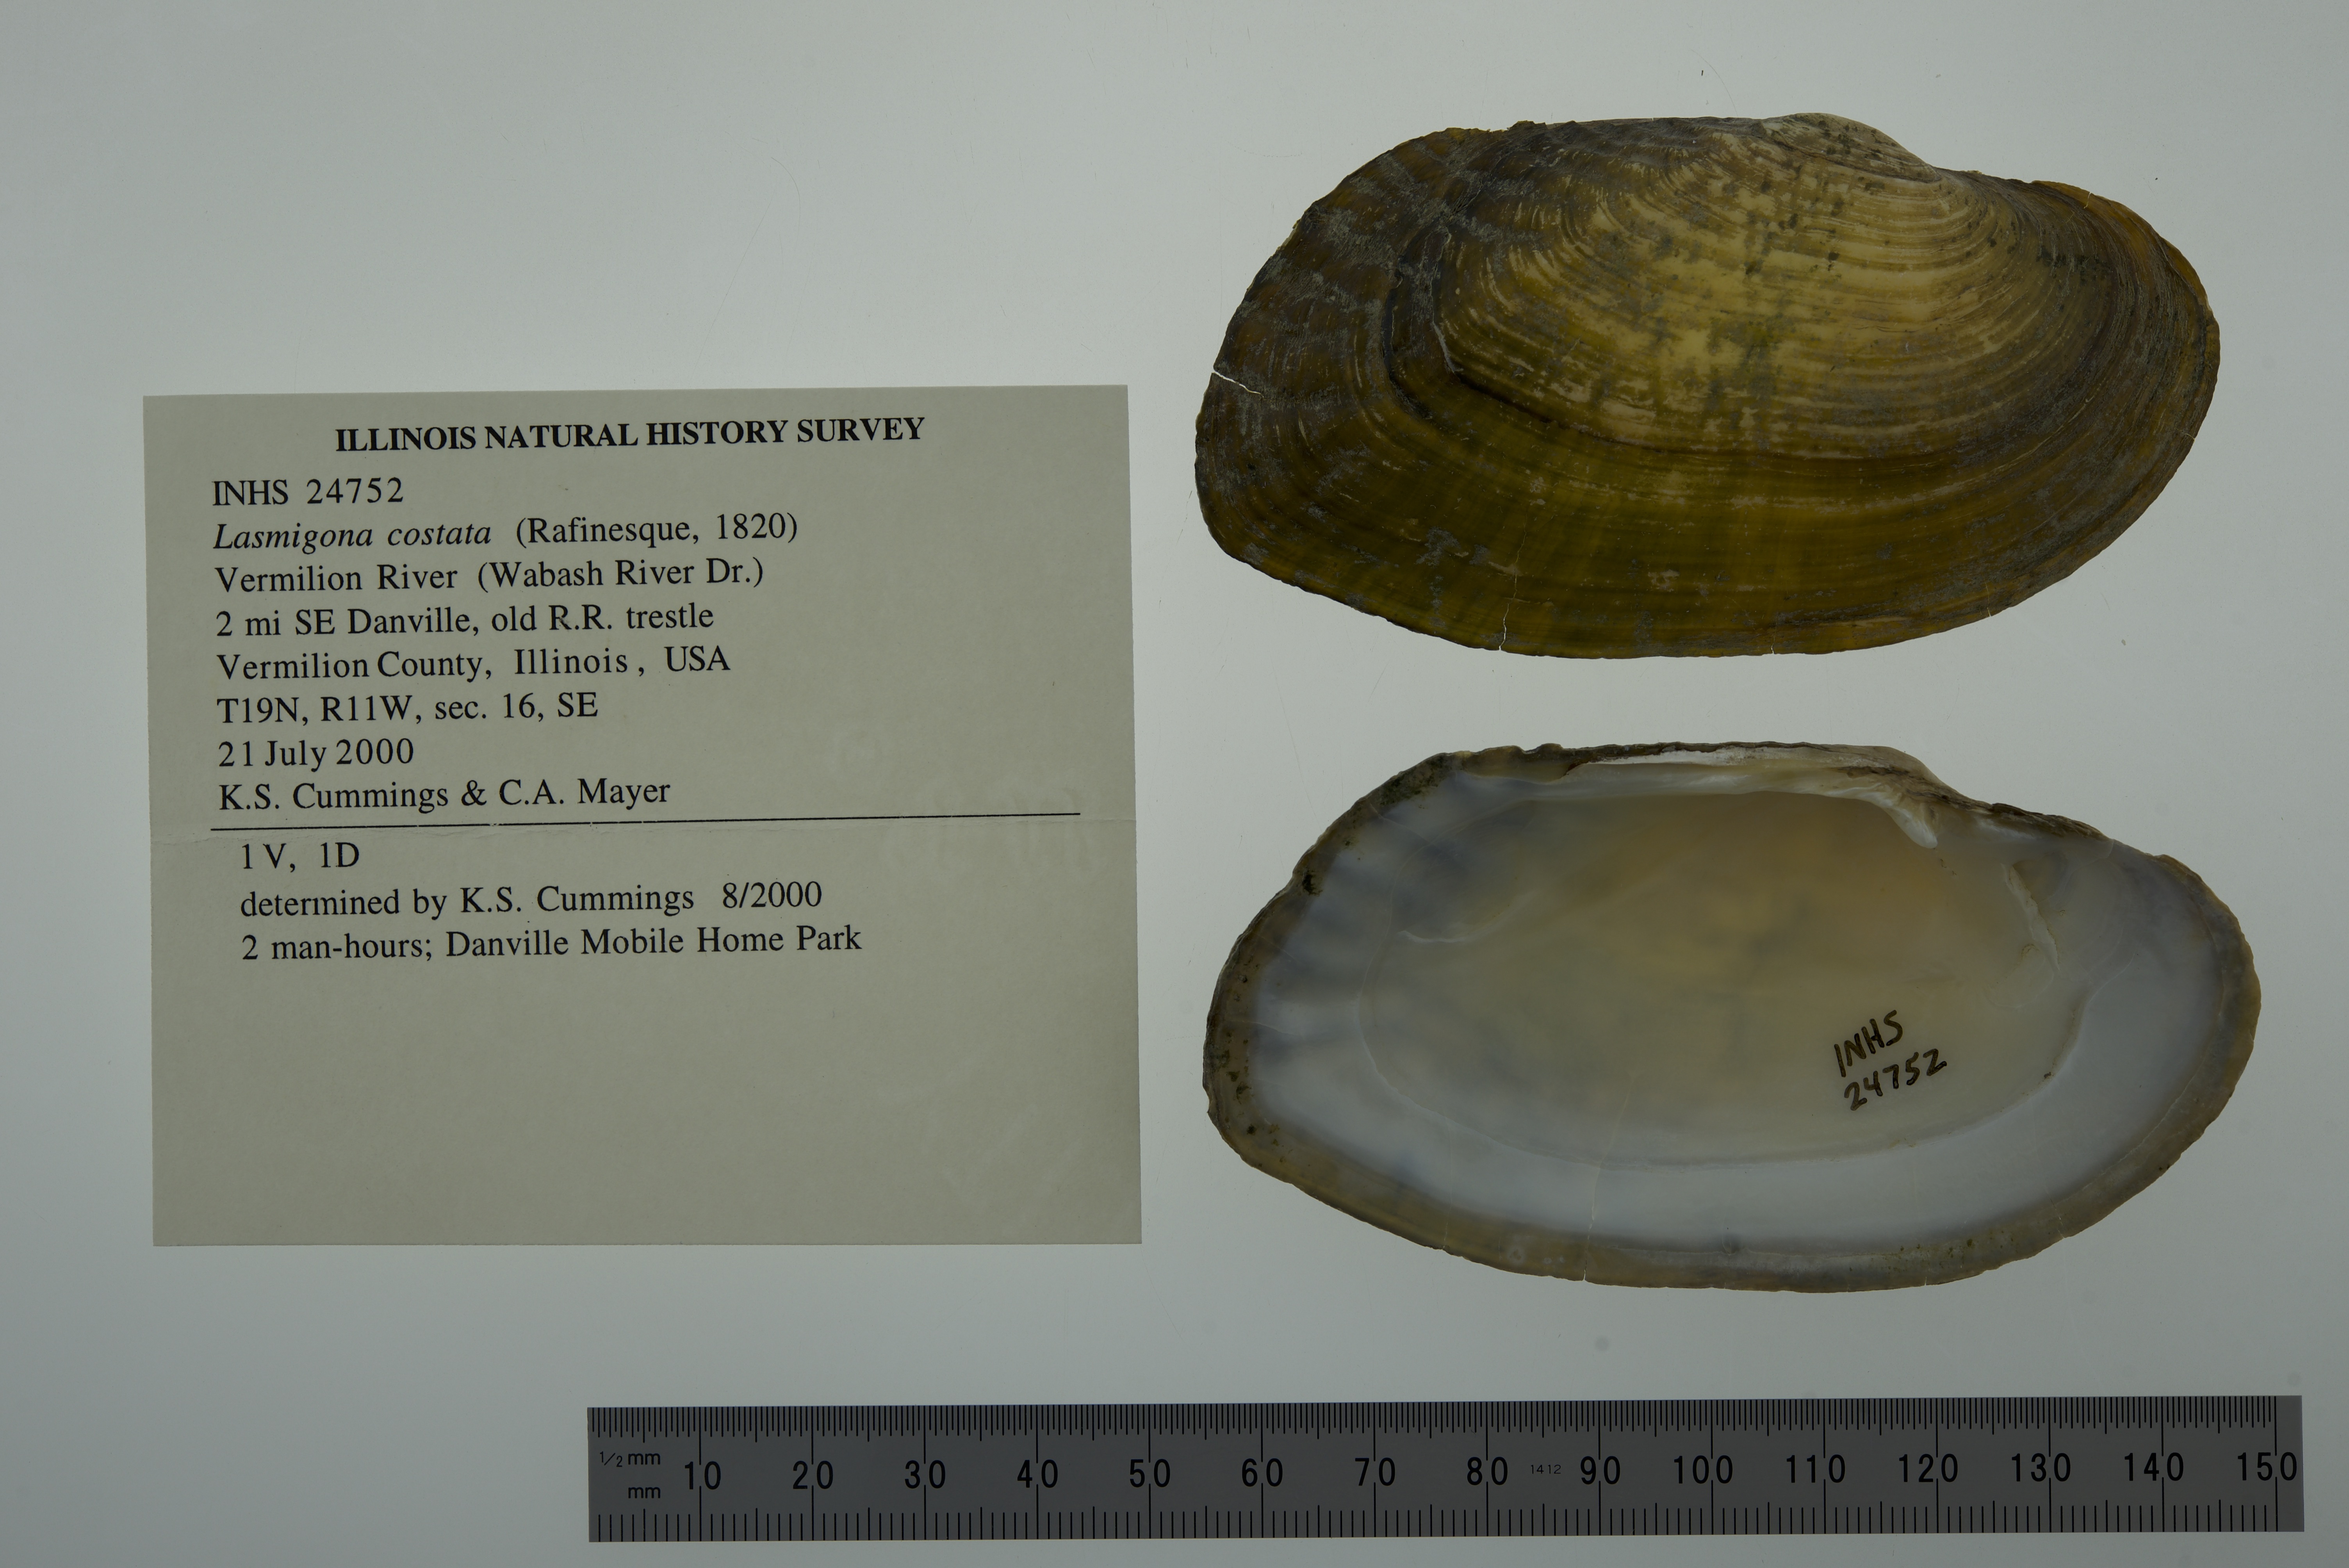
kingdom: Animalia
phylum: Mollusca
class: Bivalvia
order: Unionida
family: Unionidae
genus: Lasmigona
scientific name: Lasmigona costata
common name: Flutedshell
